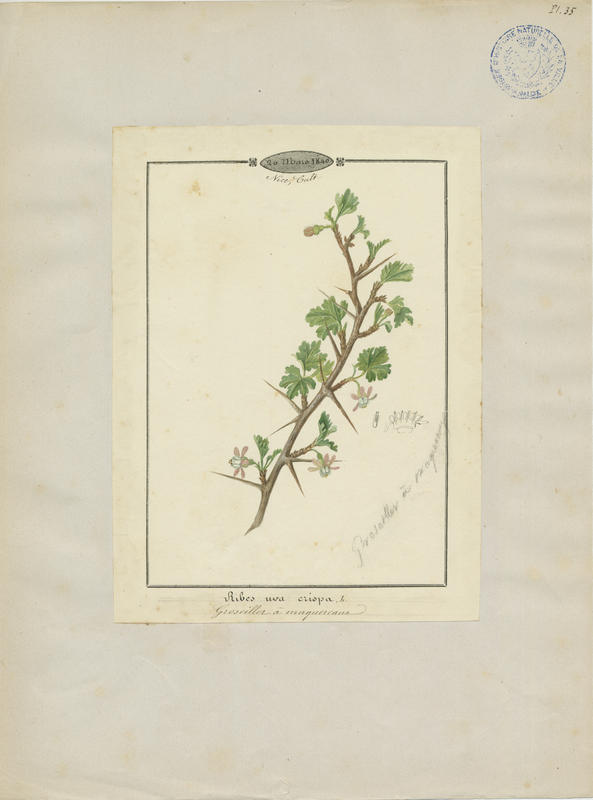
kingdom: Plantae
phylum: Tracheophyta
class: Magnoliopsida
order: Saxifragales
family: Grossulariaceae
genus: Ribes
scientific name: Ribes uva-crispa
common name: Gooseberry
